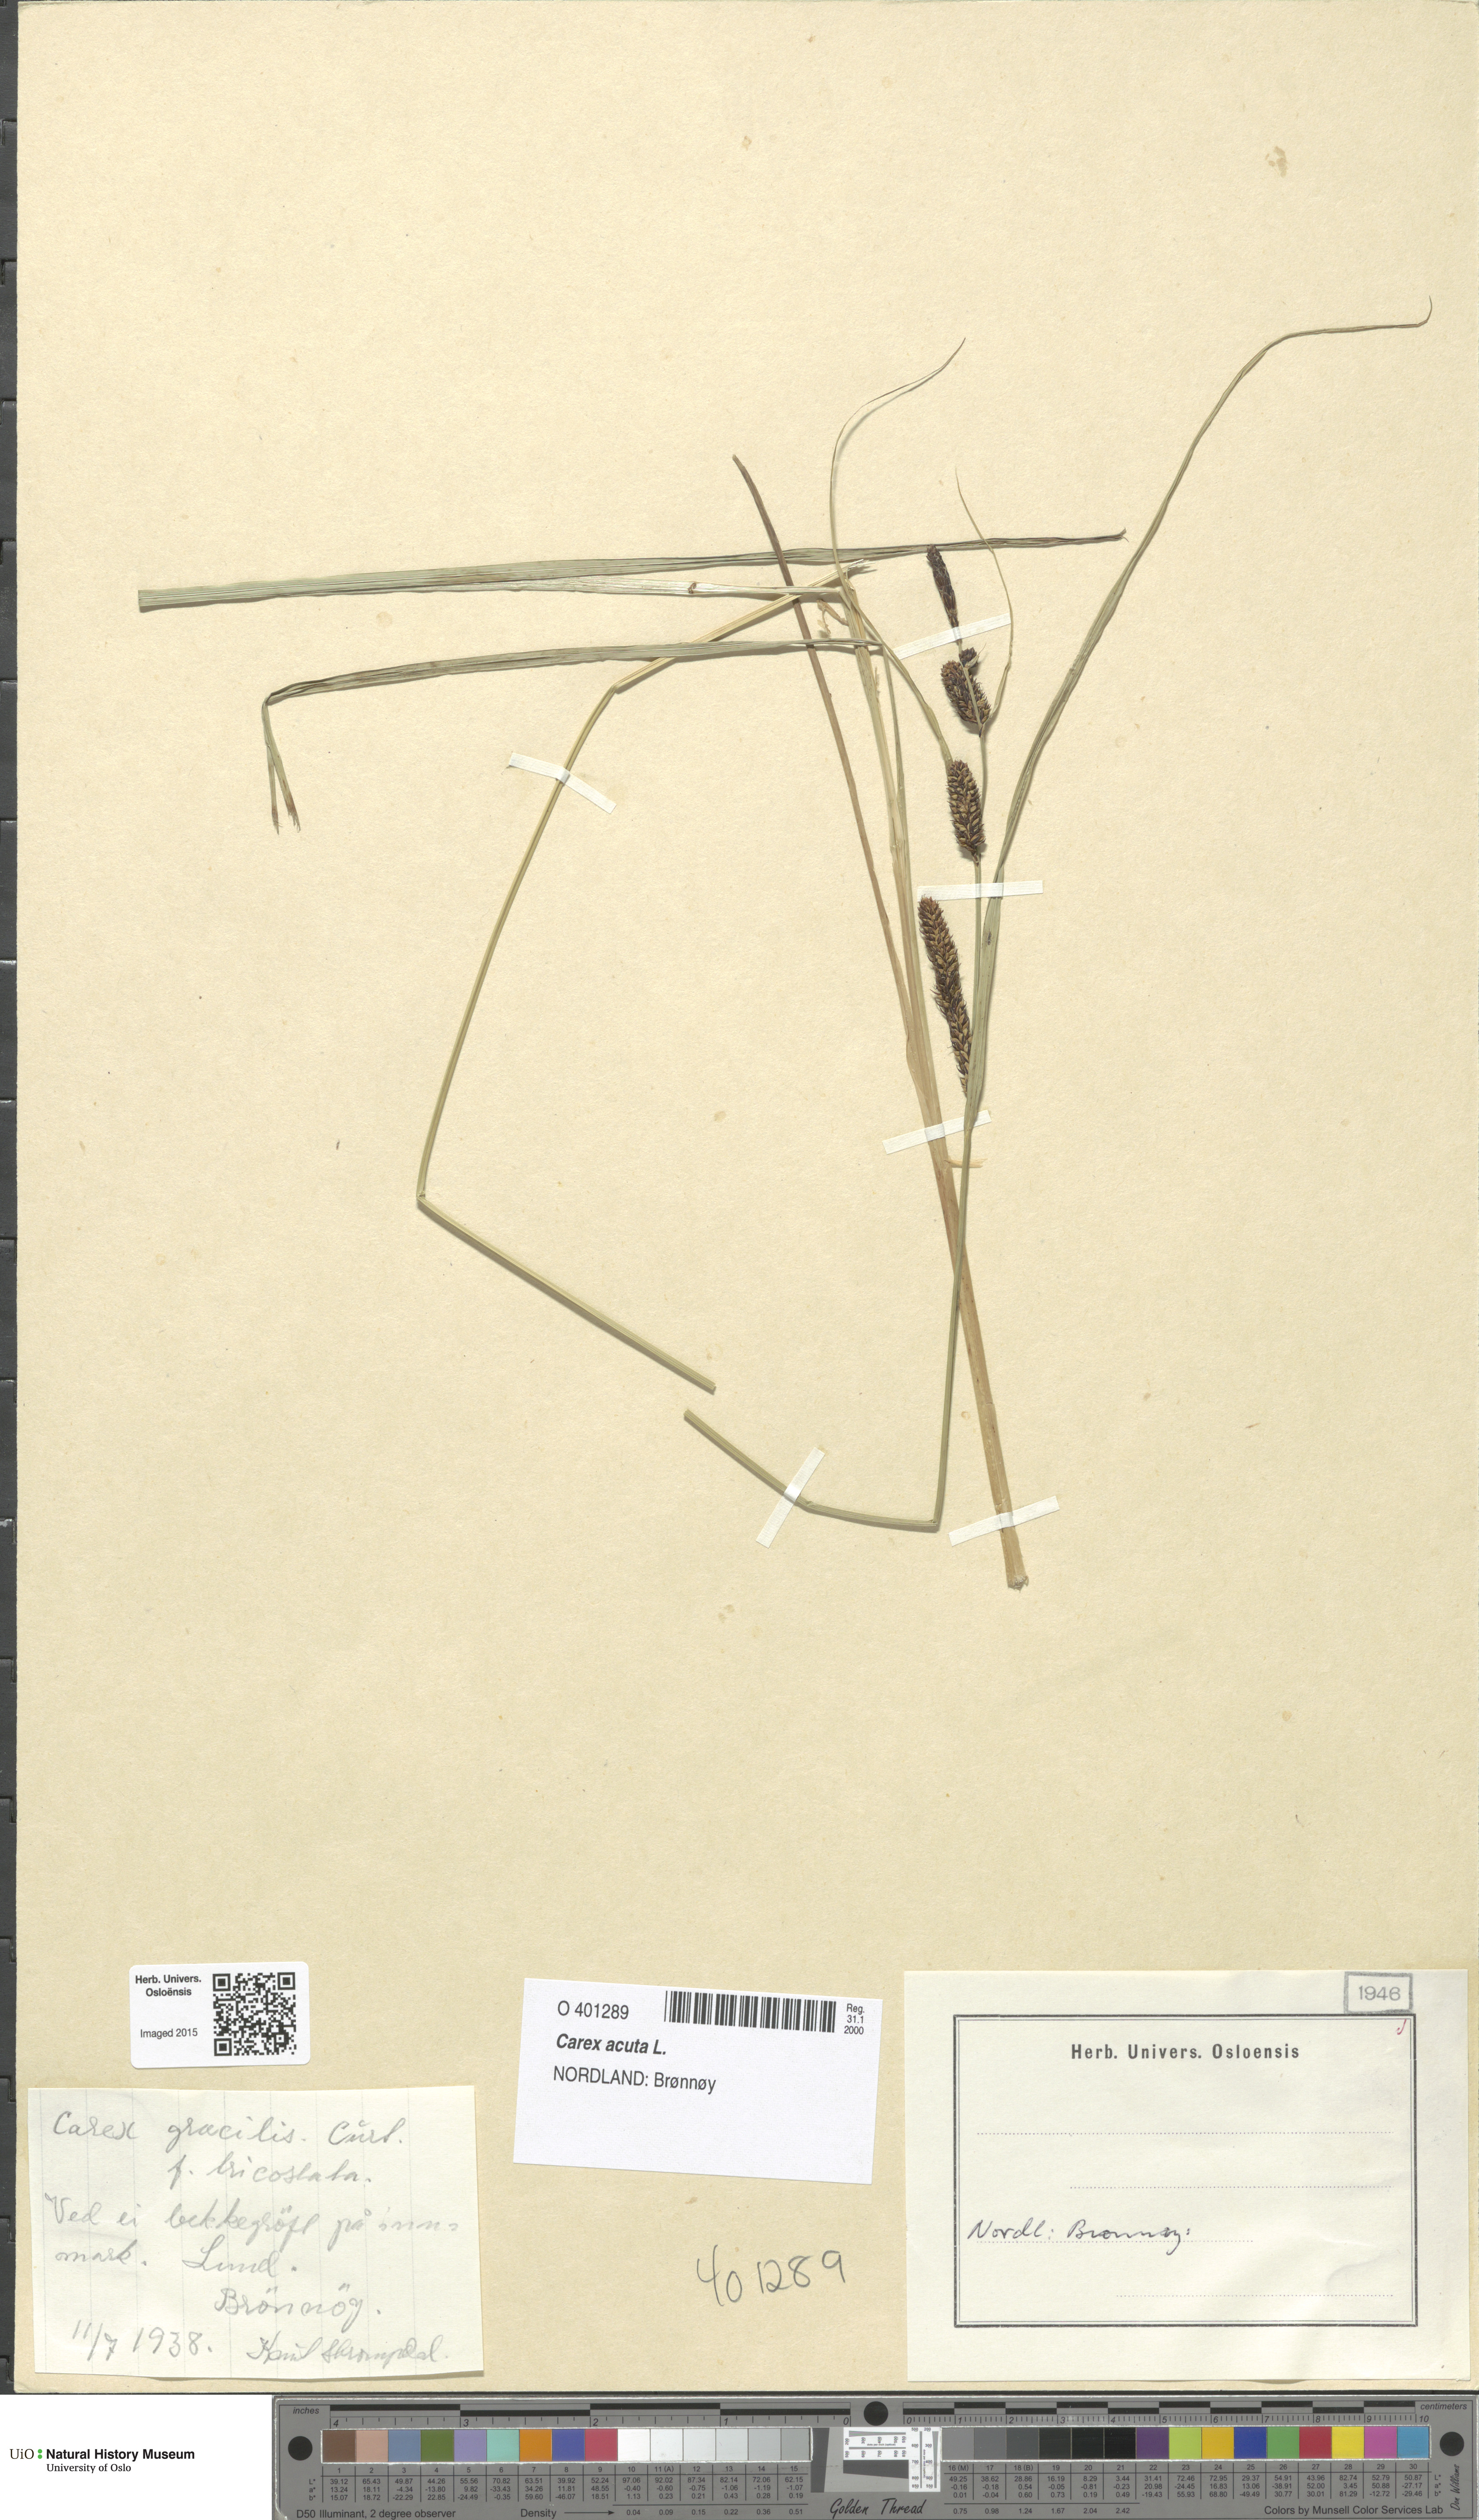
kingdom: Plantae
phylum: Tracheophyta
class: Liliopsida
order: Poales
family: Cyperaceae
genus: Carex
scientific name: Carex acuta
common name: Slender tufted-sedge
